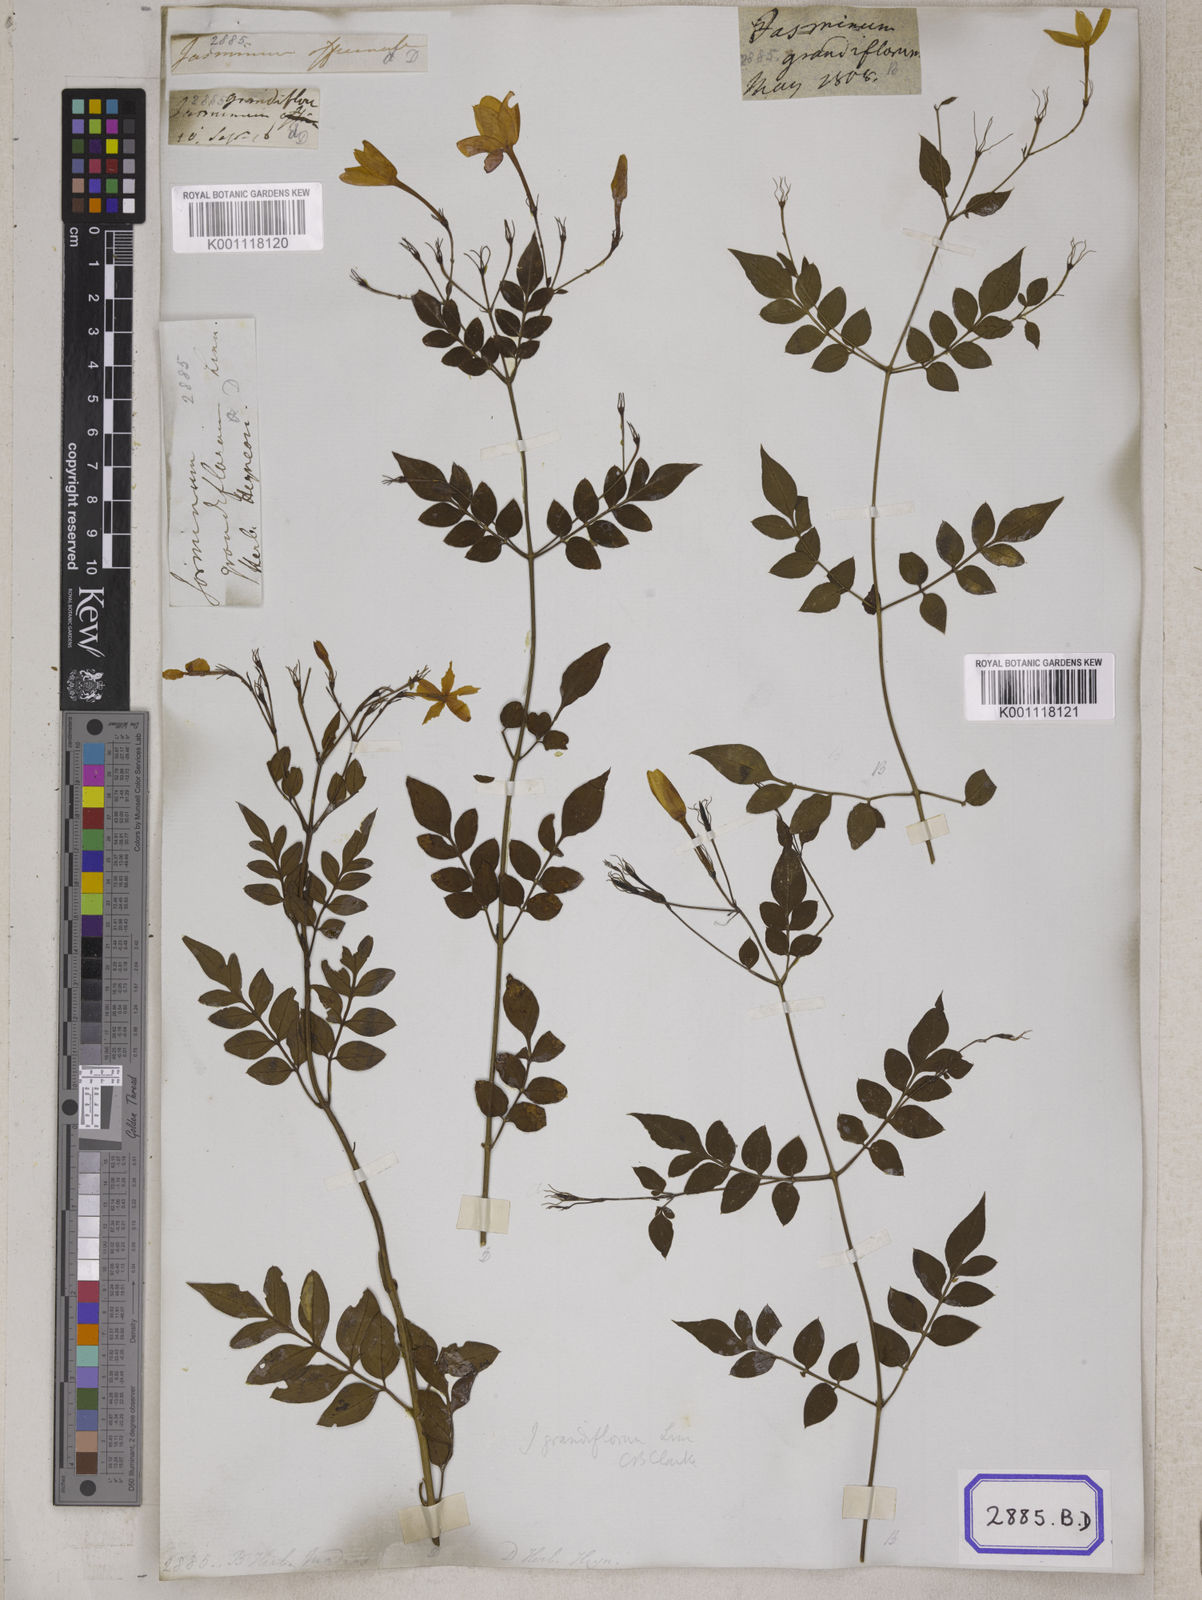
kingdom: Plantae
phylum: Tracheophyta
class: Magnoliopsida
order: Lamiales
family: Oleaceae
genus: Jasminum
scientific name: Jasminum grandiflorum
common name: Catalonian jasmine
